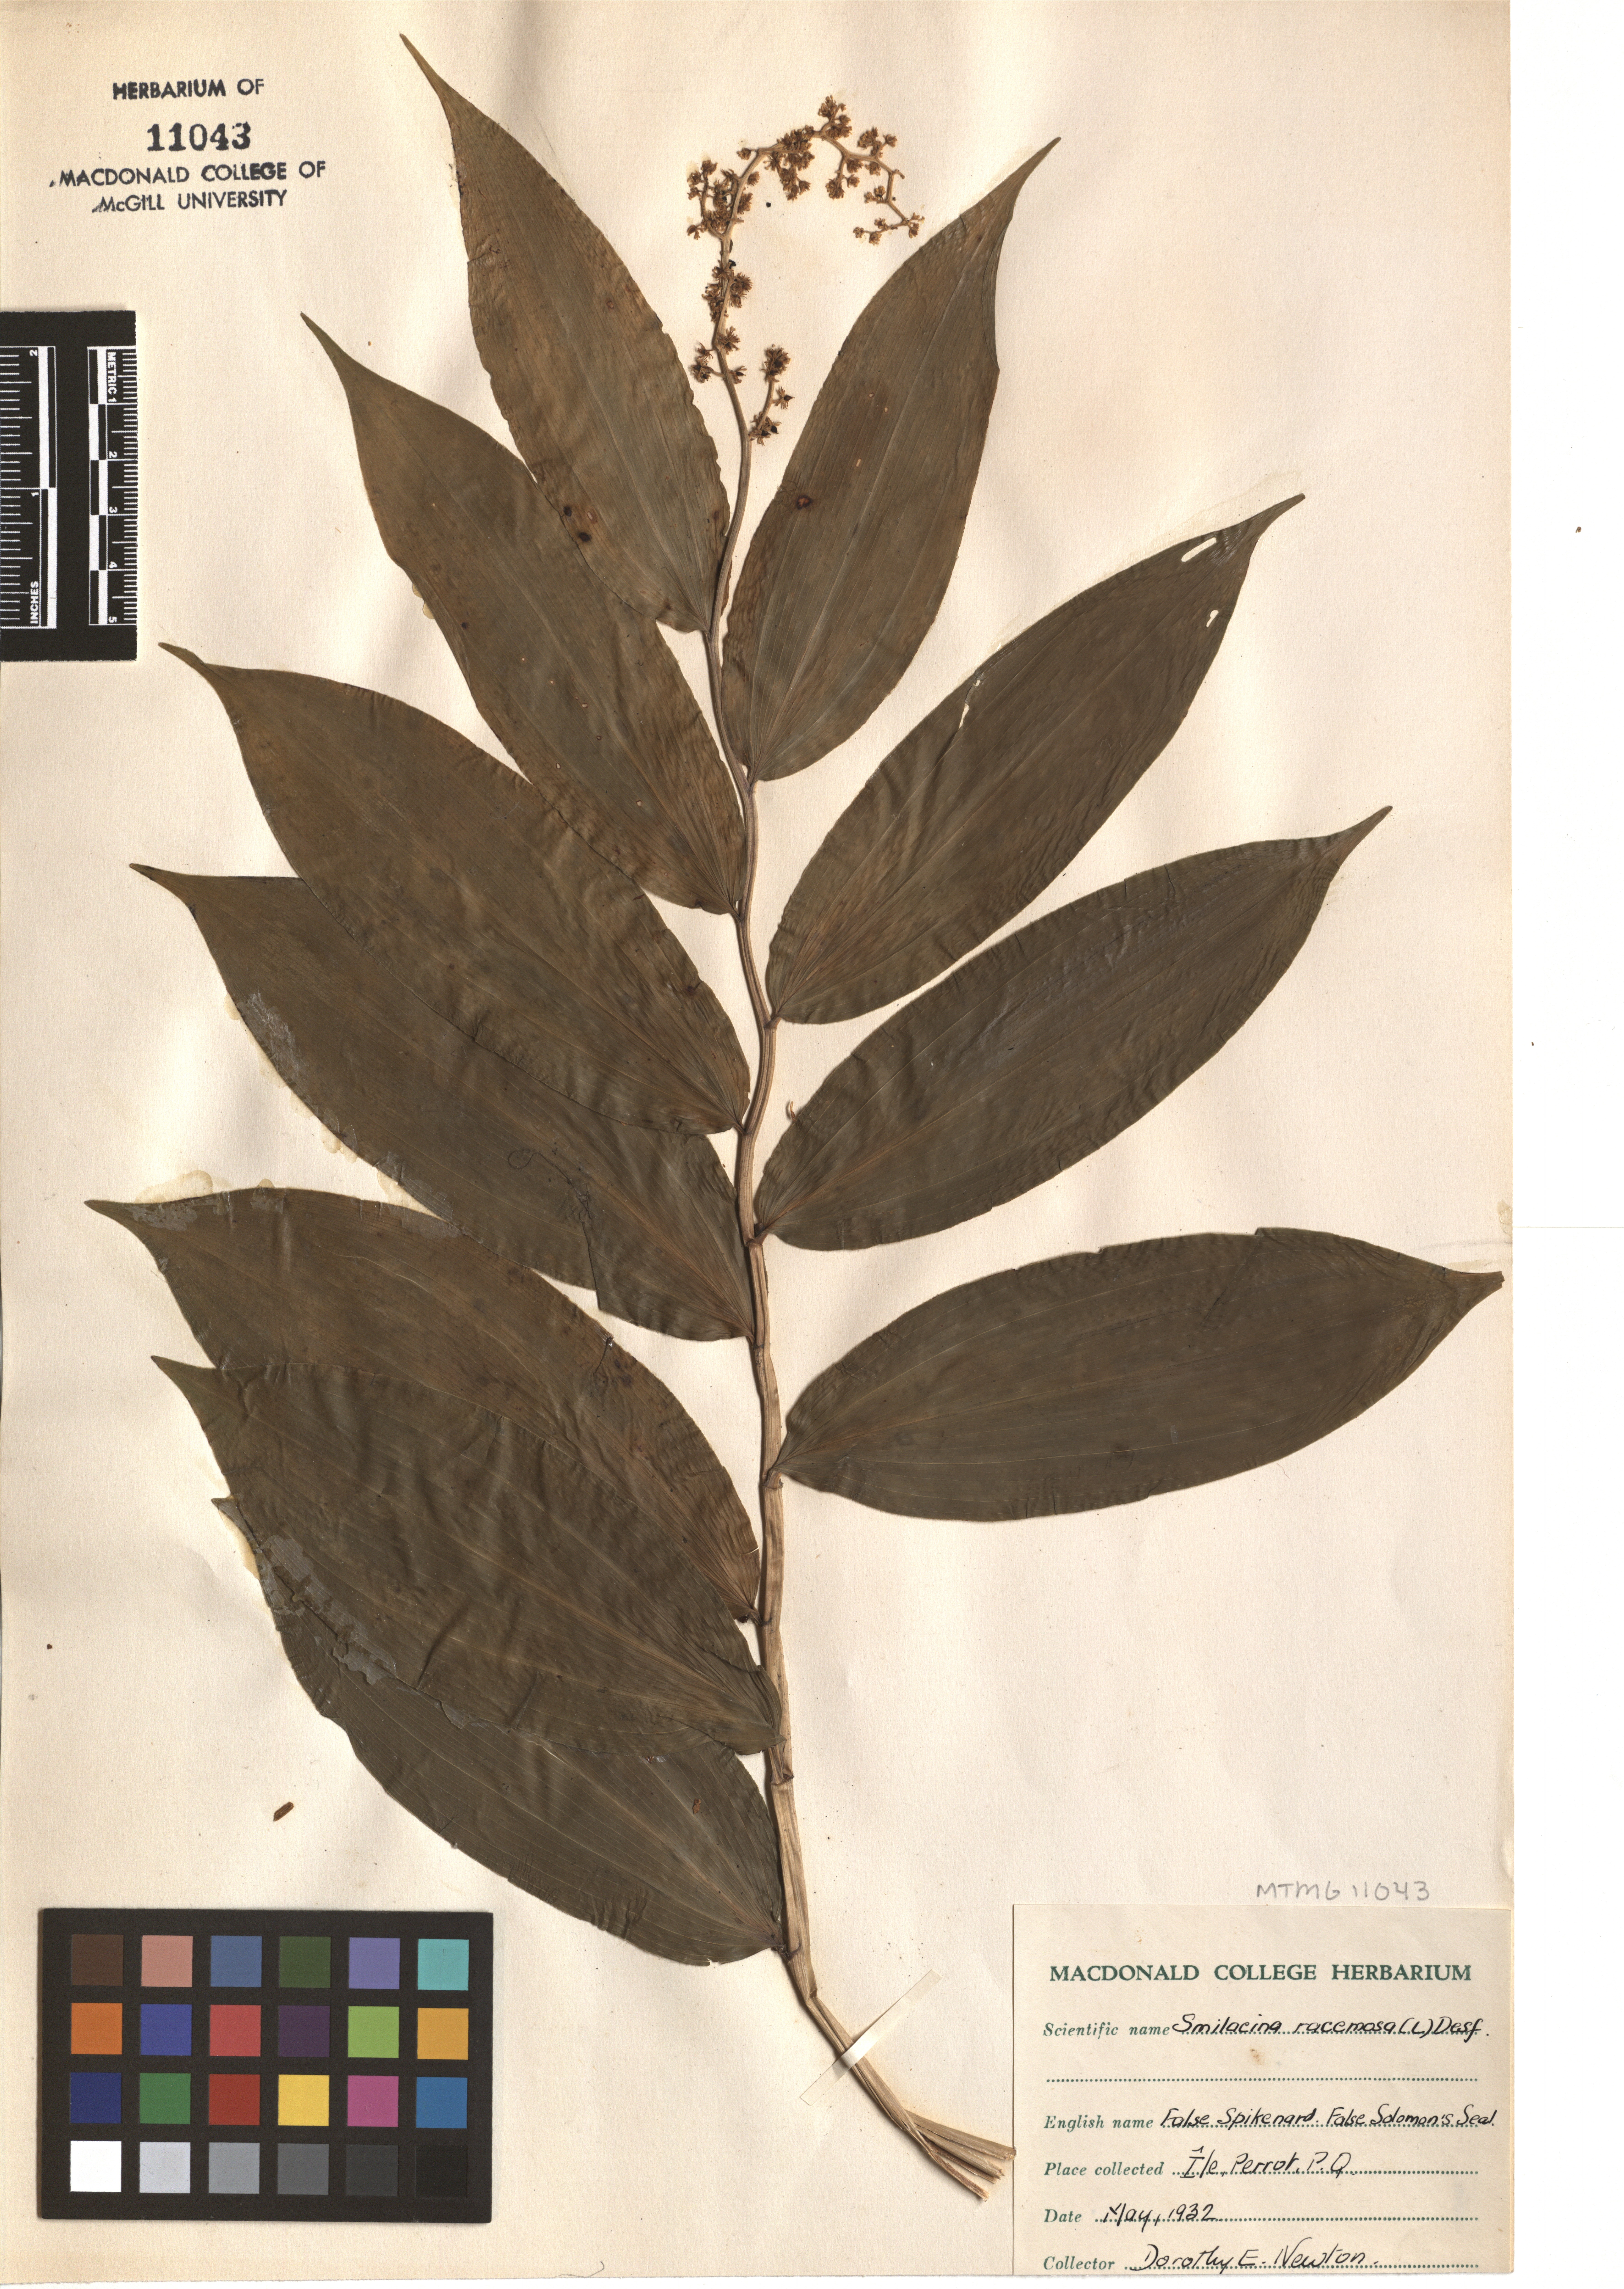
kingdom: Plantae
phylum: Tracheophyta
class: Liliopsida
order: Asparagales
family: Asparagaceae
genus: Maianthemum
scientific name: Maianthemum racemosum
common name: False spikenard
